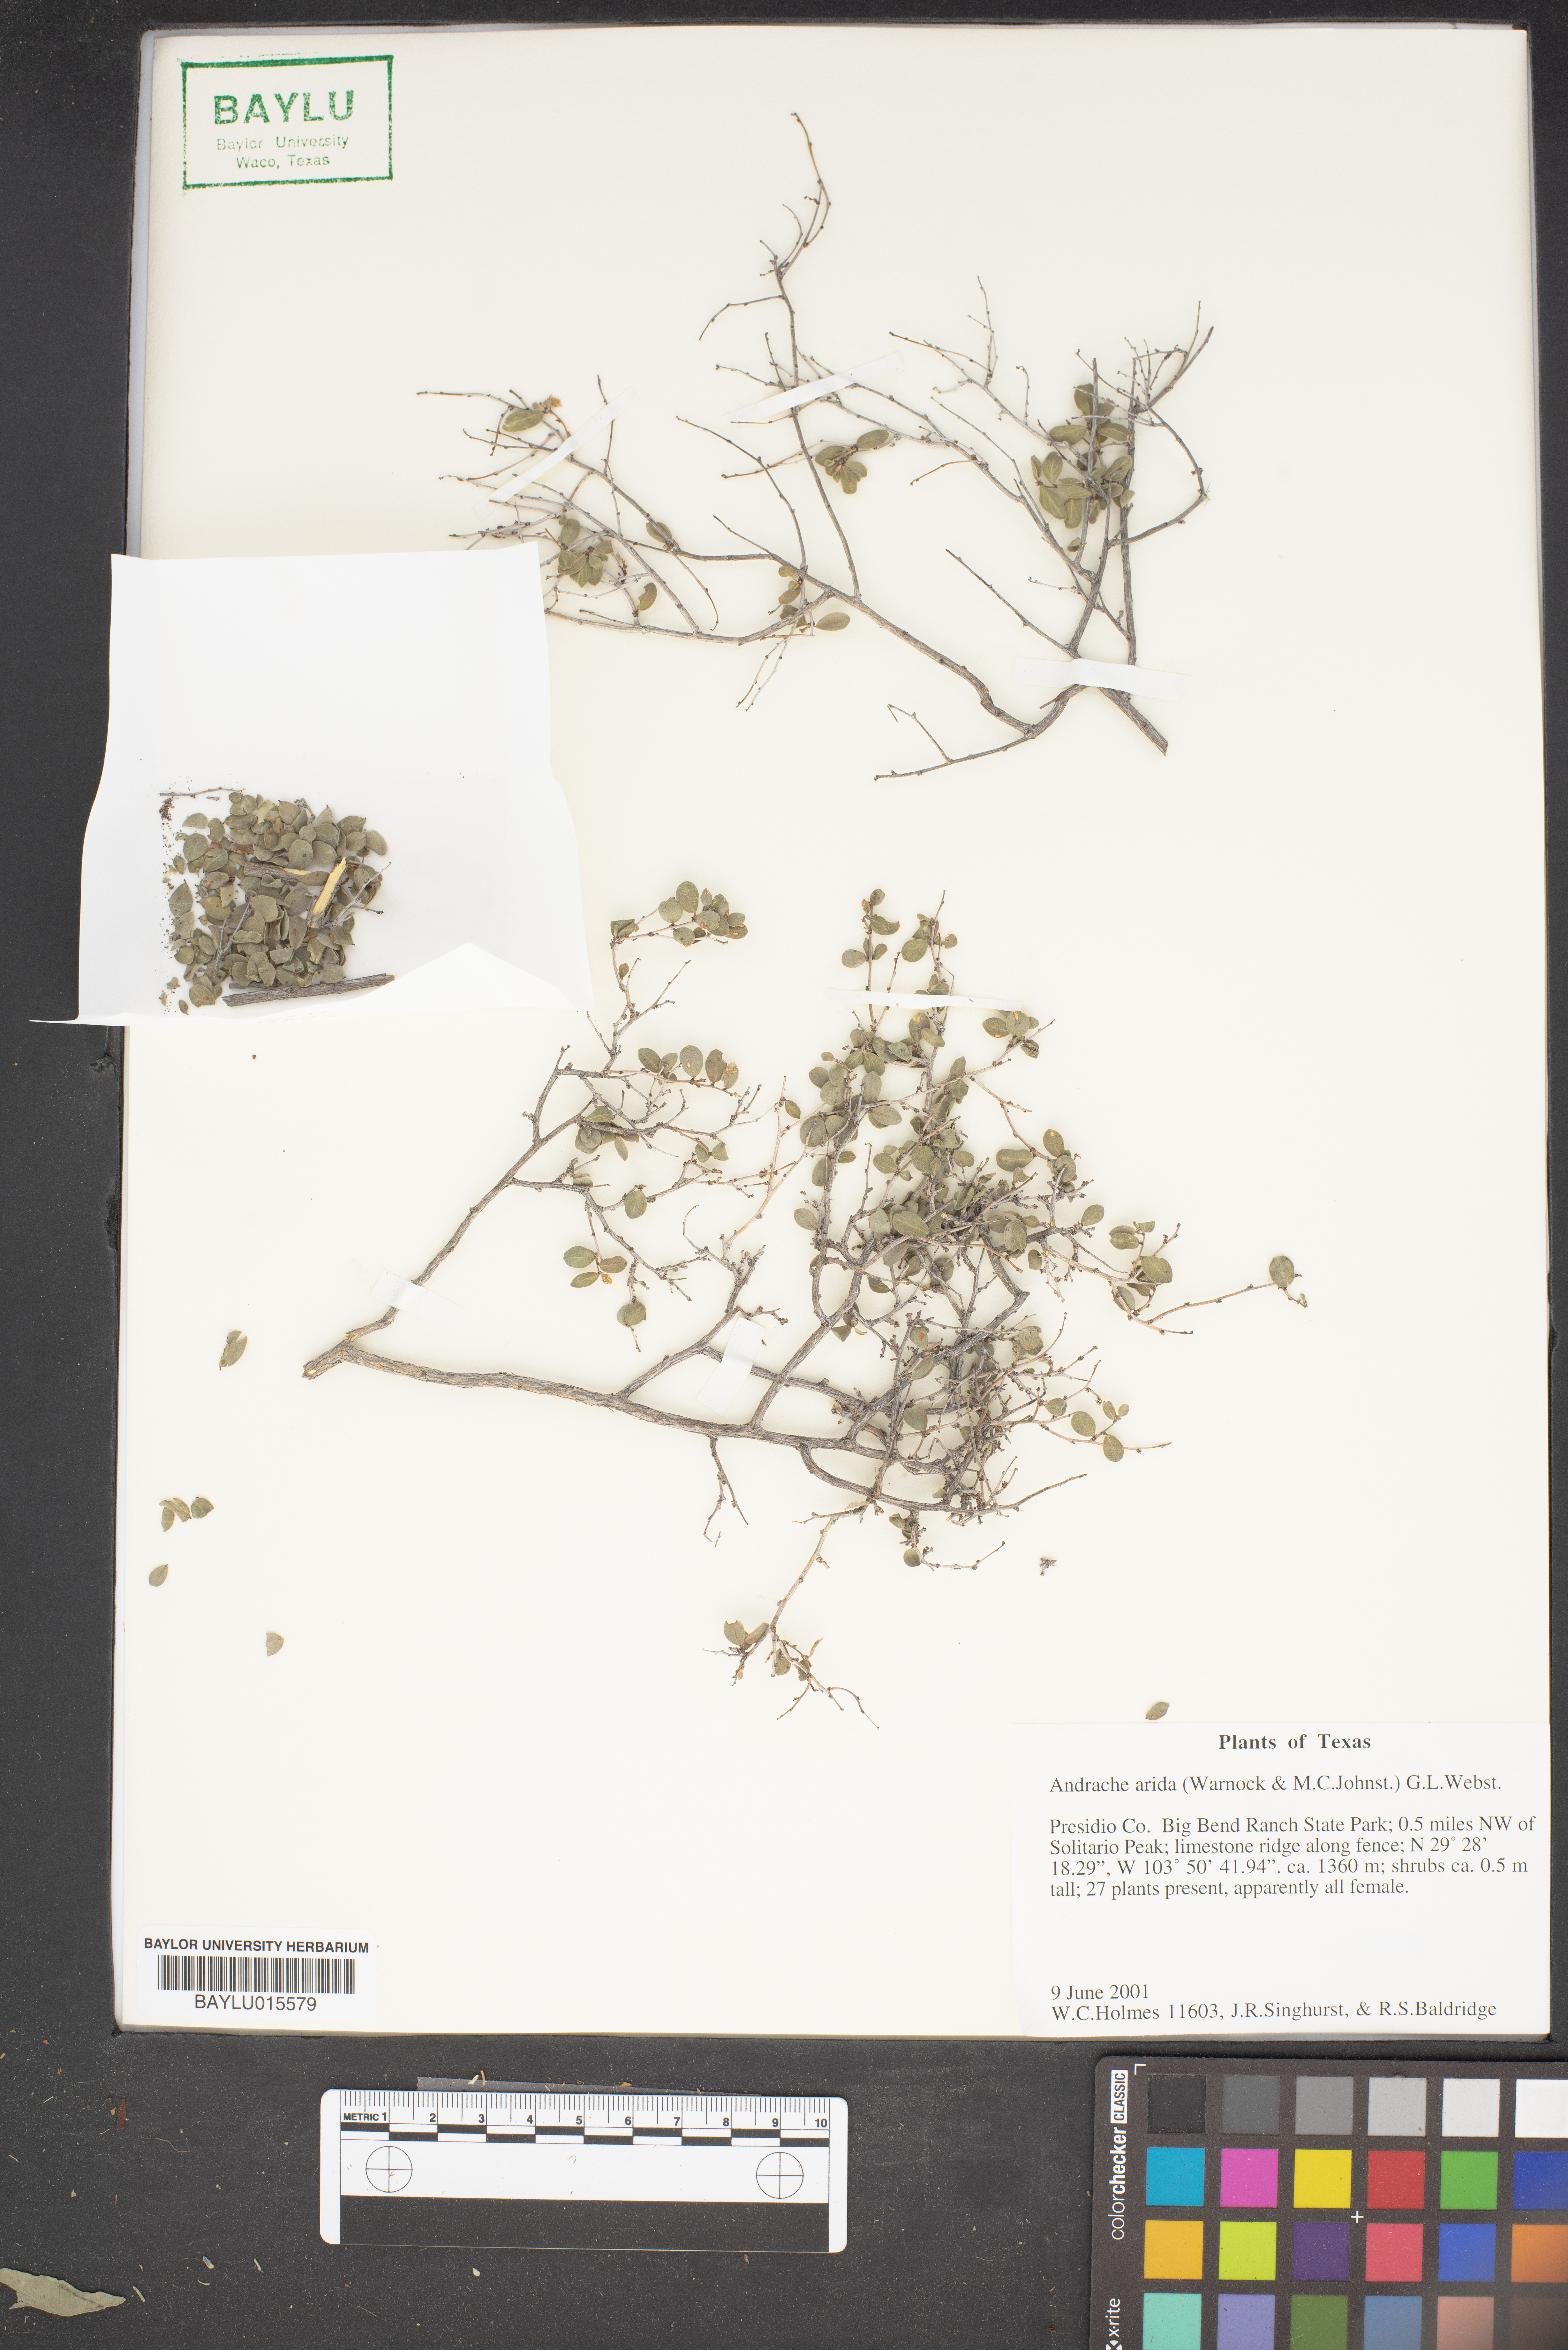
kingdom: Plantae
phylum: Tracheophyta
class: Magnoliopsida
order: Malpighiales
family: Phyllanthaceae
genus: Phyllanthopsis
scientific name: Phyllanthopsis arida
